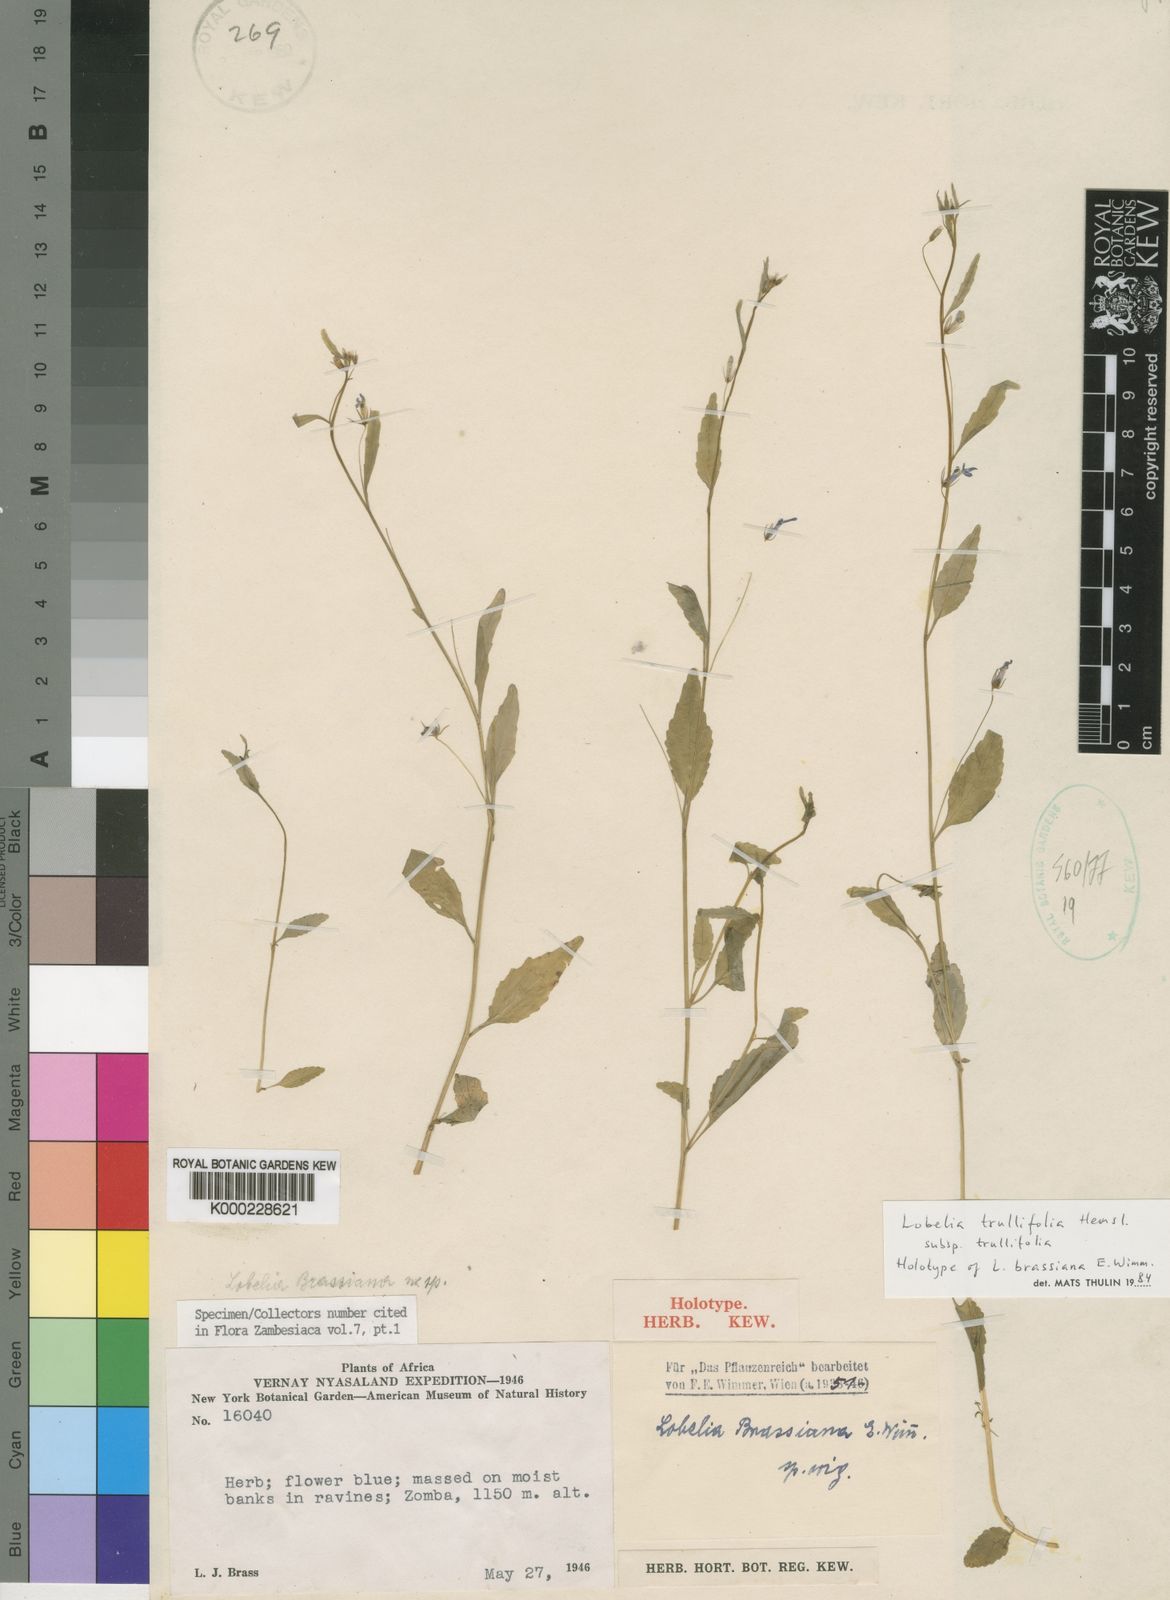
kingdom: Plantae
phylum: Tracheophyta
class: Magnoliopsida
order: Asterales
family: Campanulaceae
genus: Lobelia
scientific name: Lobelia trullifolia
